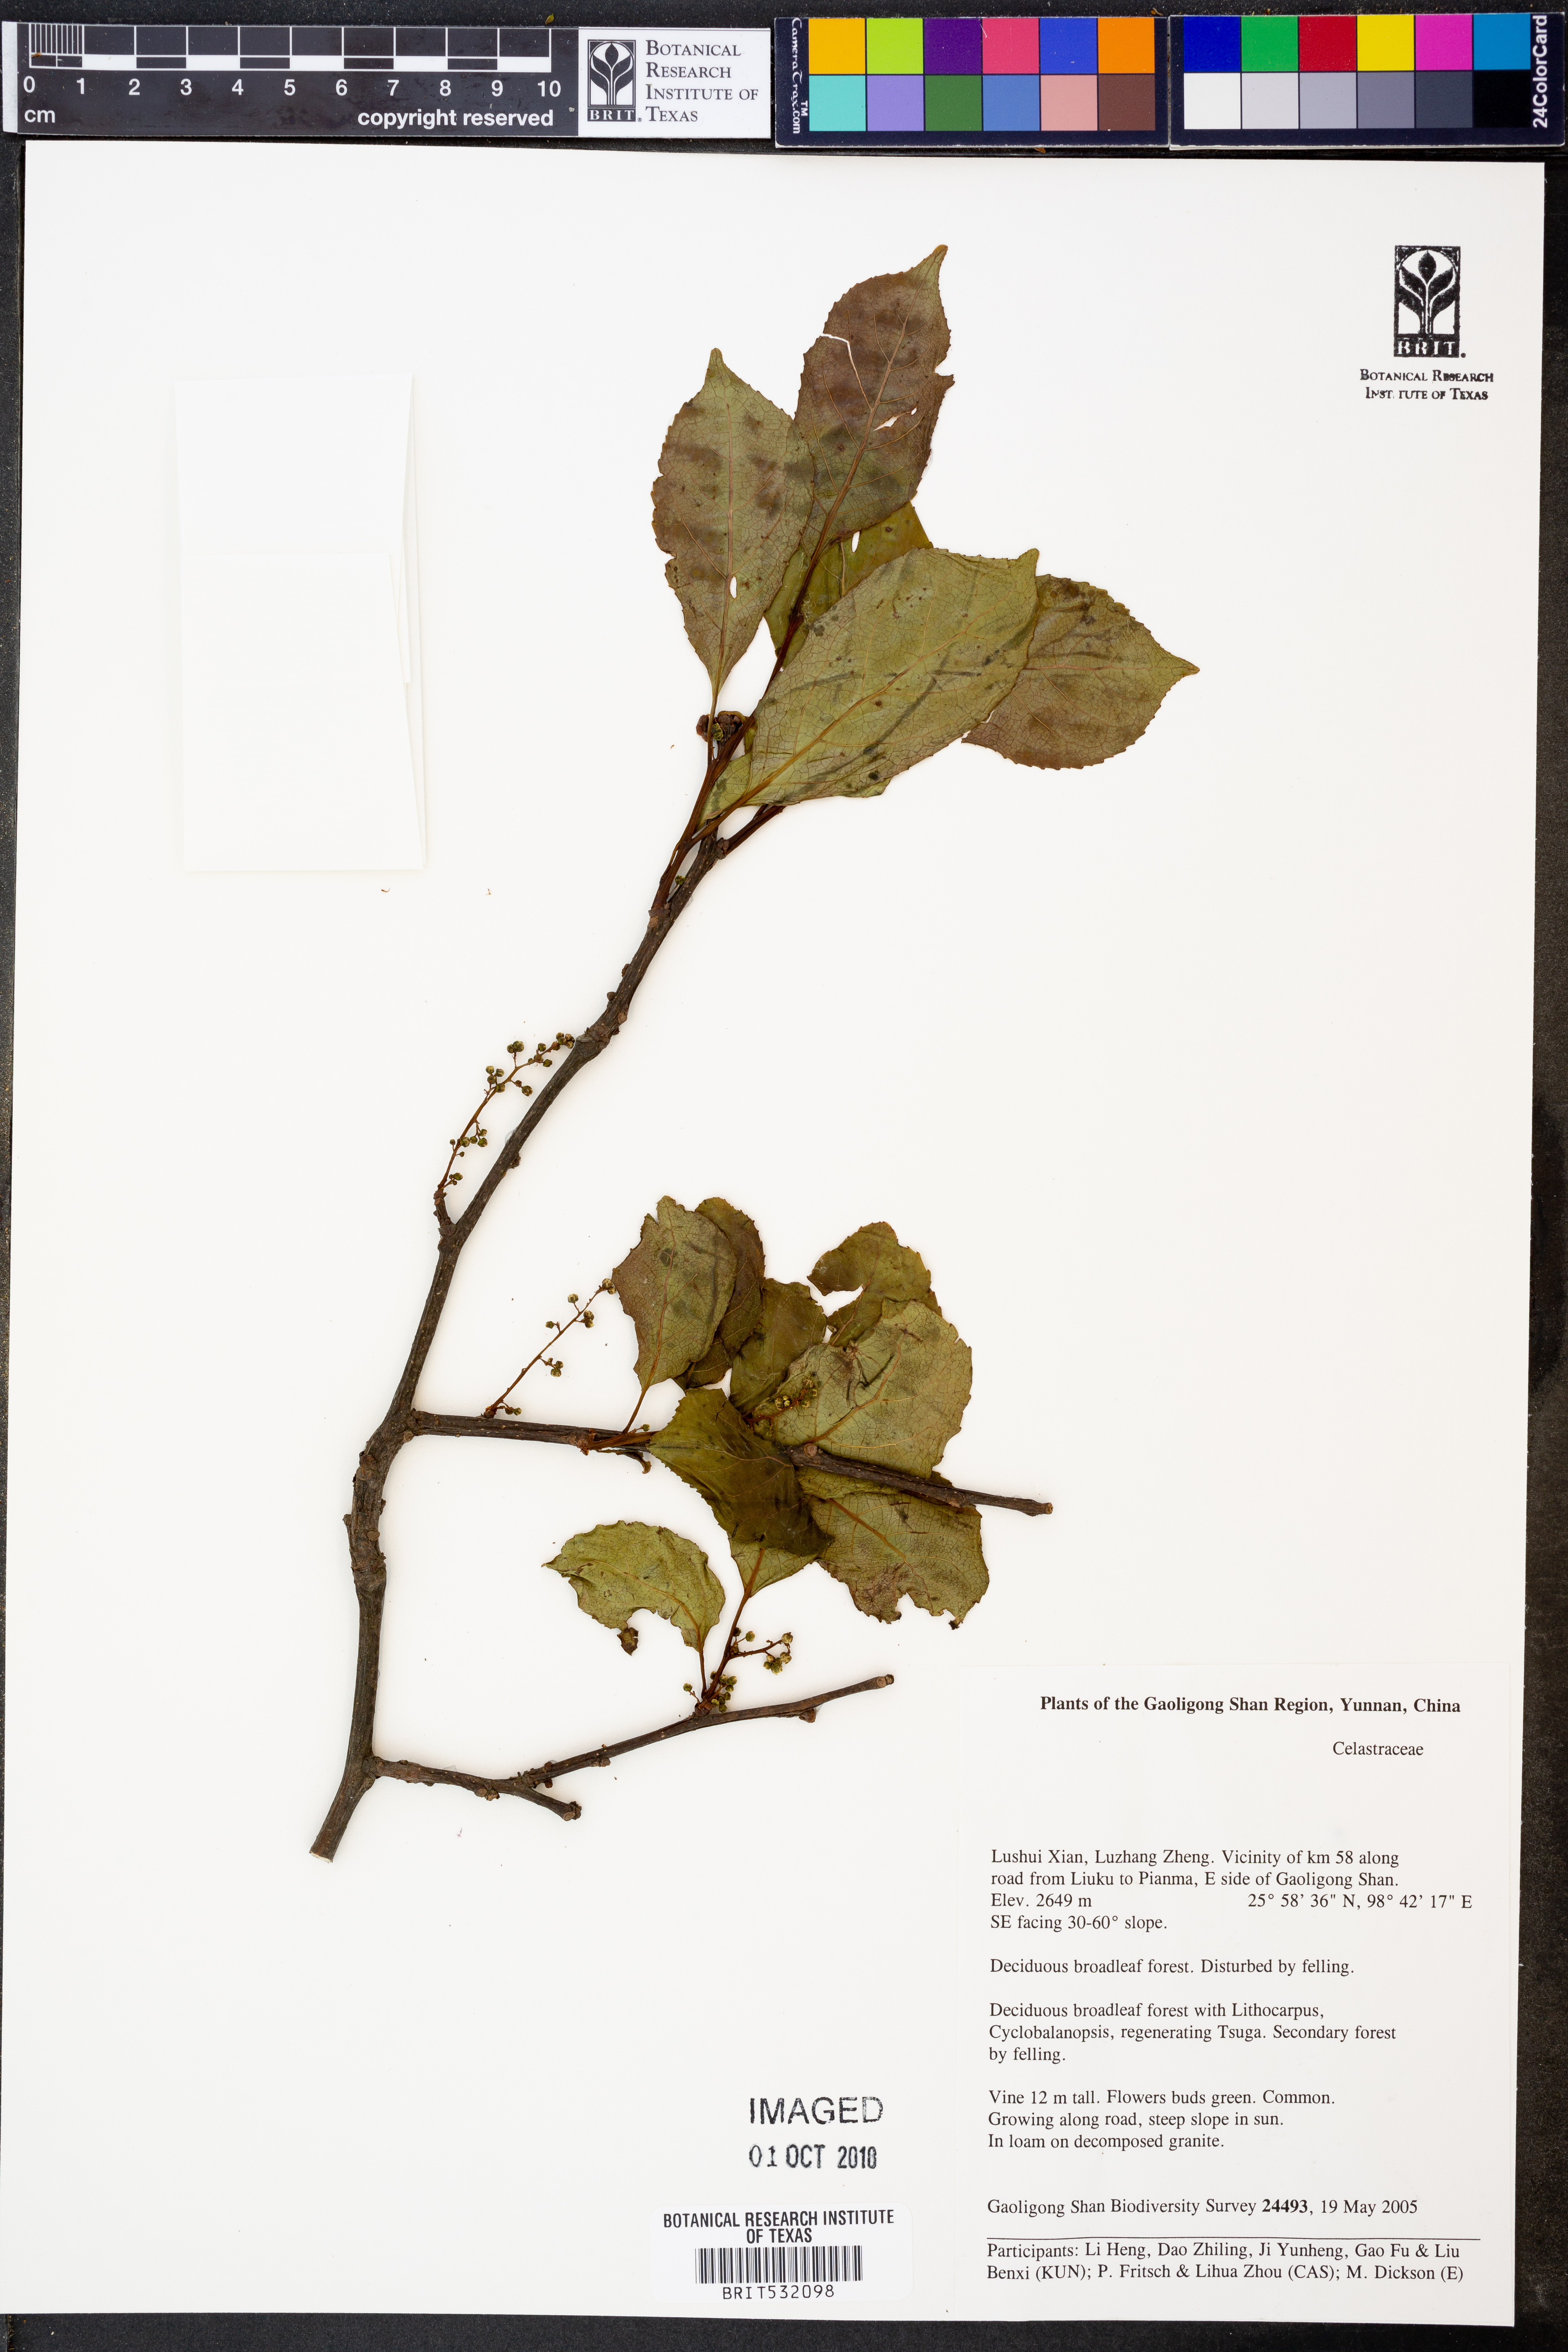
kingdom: Plantae
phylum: Tracheophyta
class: Magnoliopsida
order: Celastrales
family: Celastraceae
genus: Celastrus
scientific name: Celastrus
